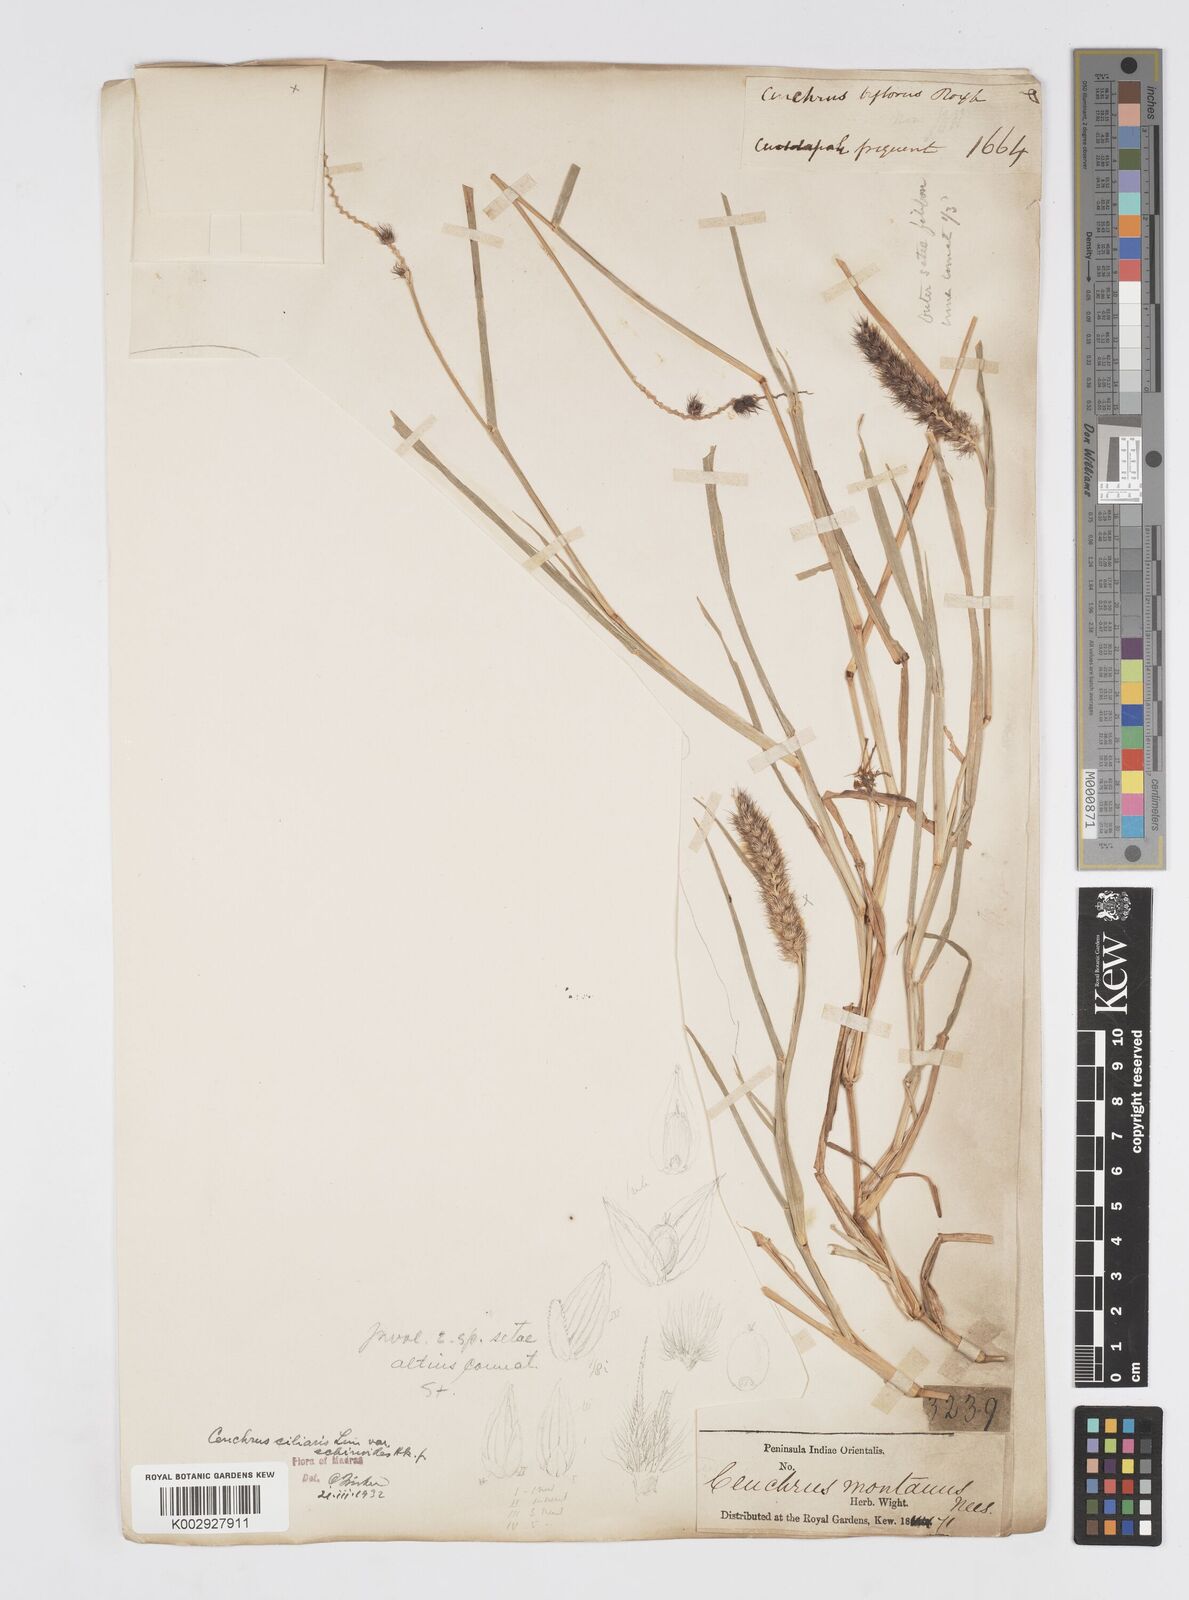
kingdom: Plantae
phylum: Tracheophyta
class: Liliopsida
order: Poales
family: Poaceae
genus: Cenchrus
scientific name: Cenchrus pennisetiformis
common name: Cloncurry
